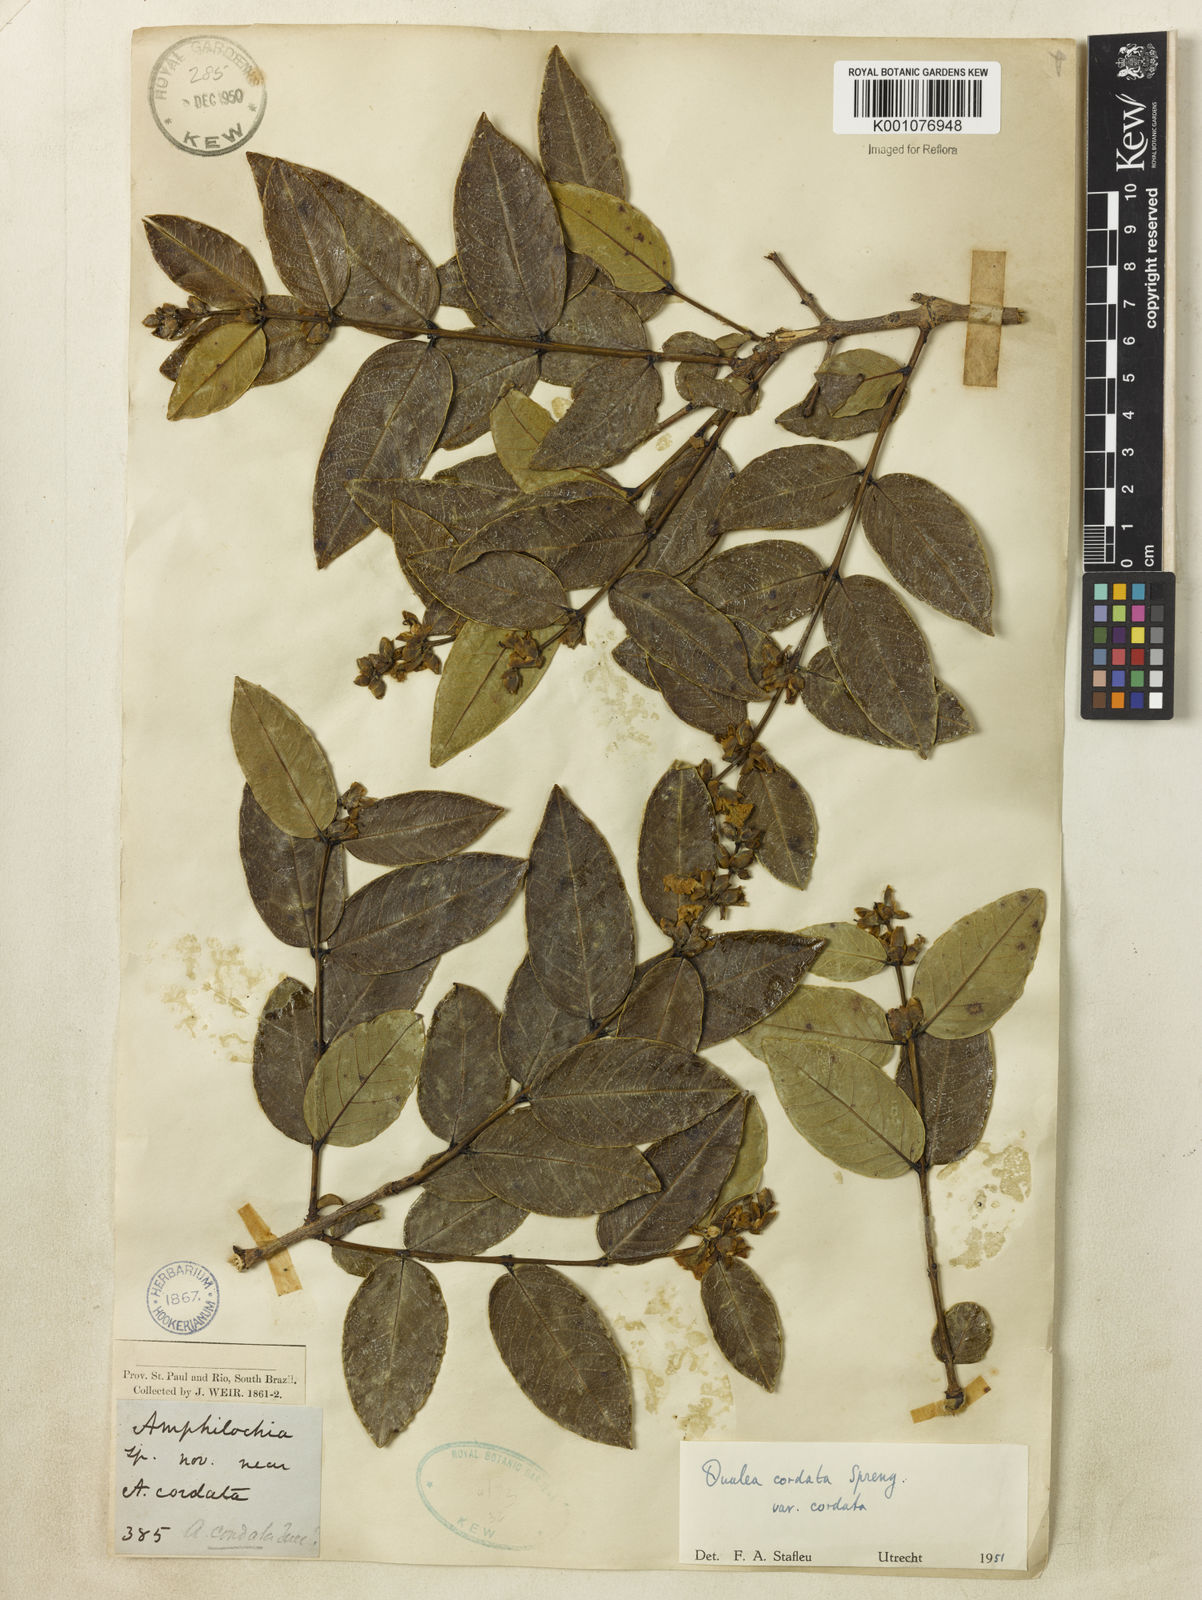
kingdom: Plantae
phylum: Tracheophyta
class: Magnoliopsida
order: Myrtales
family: Vochysiaceae
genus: Qualea
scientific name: Qualea cordata
